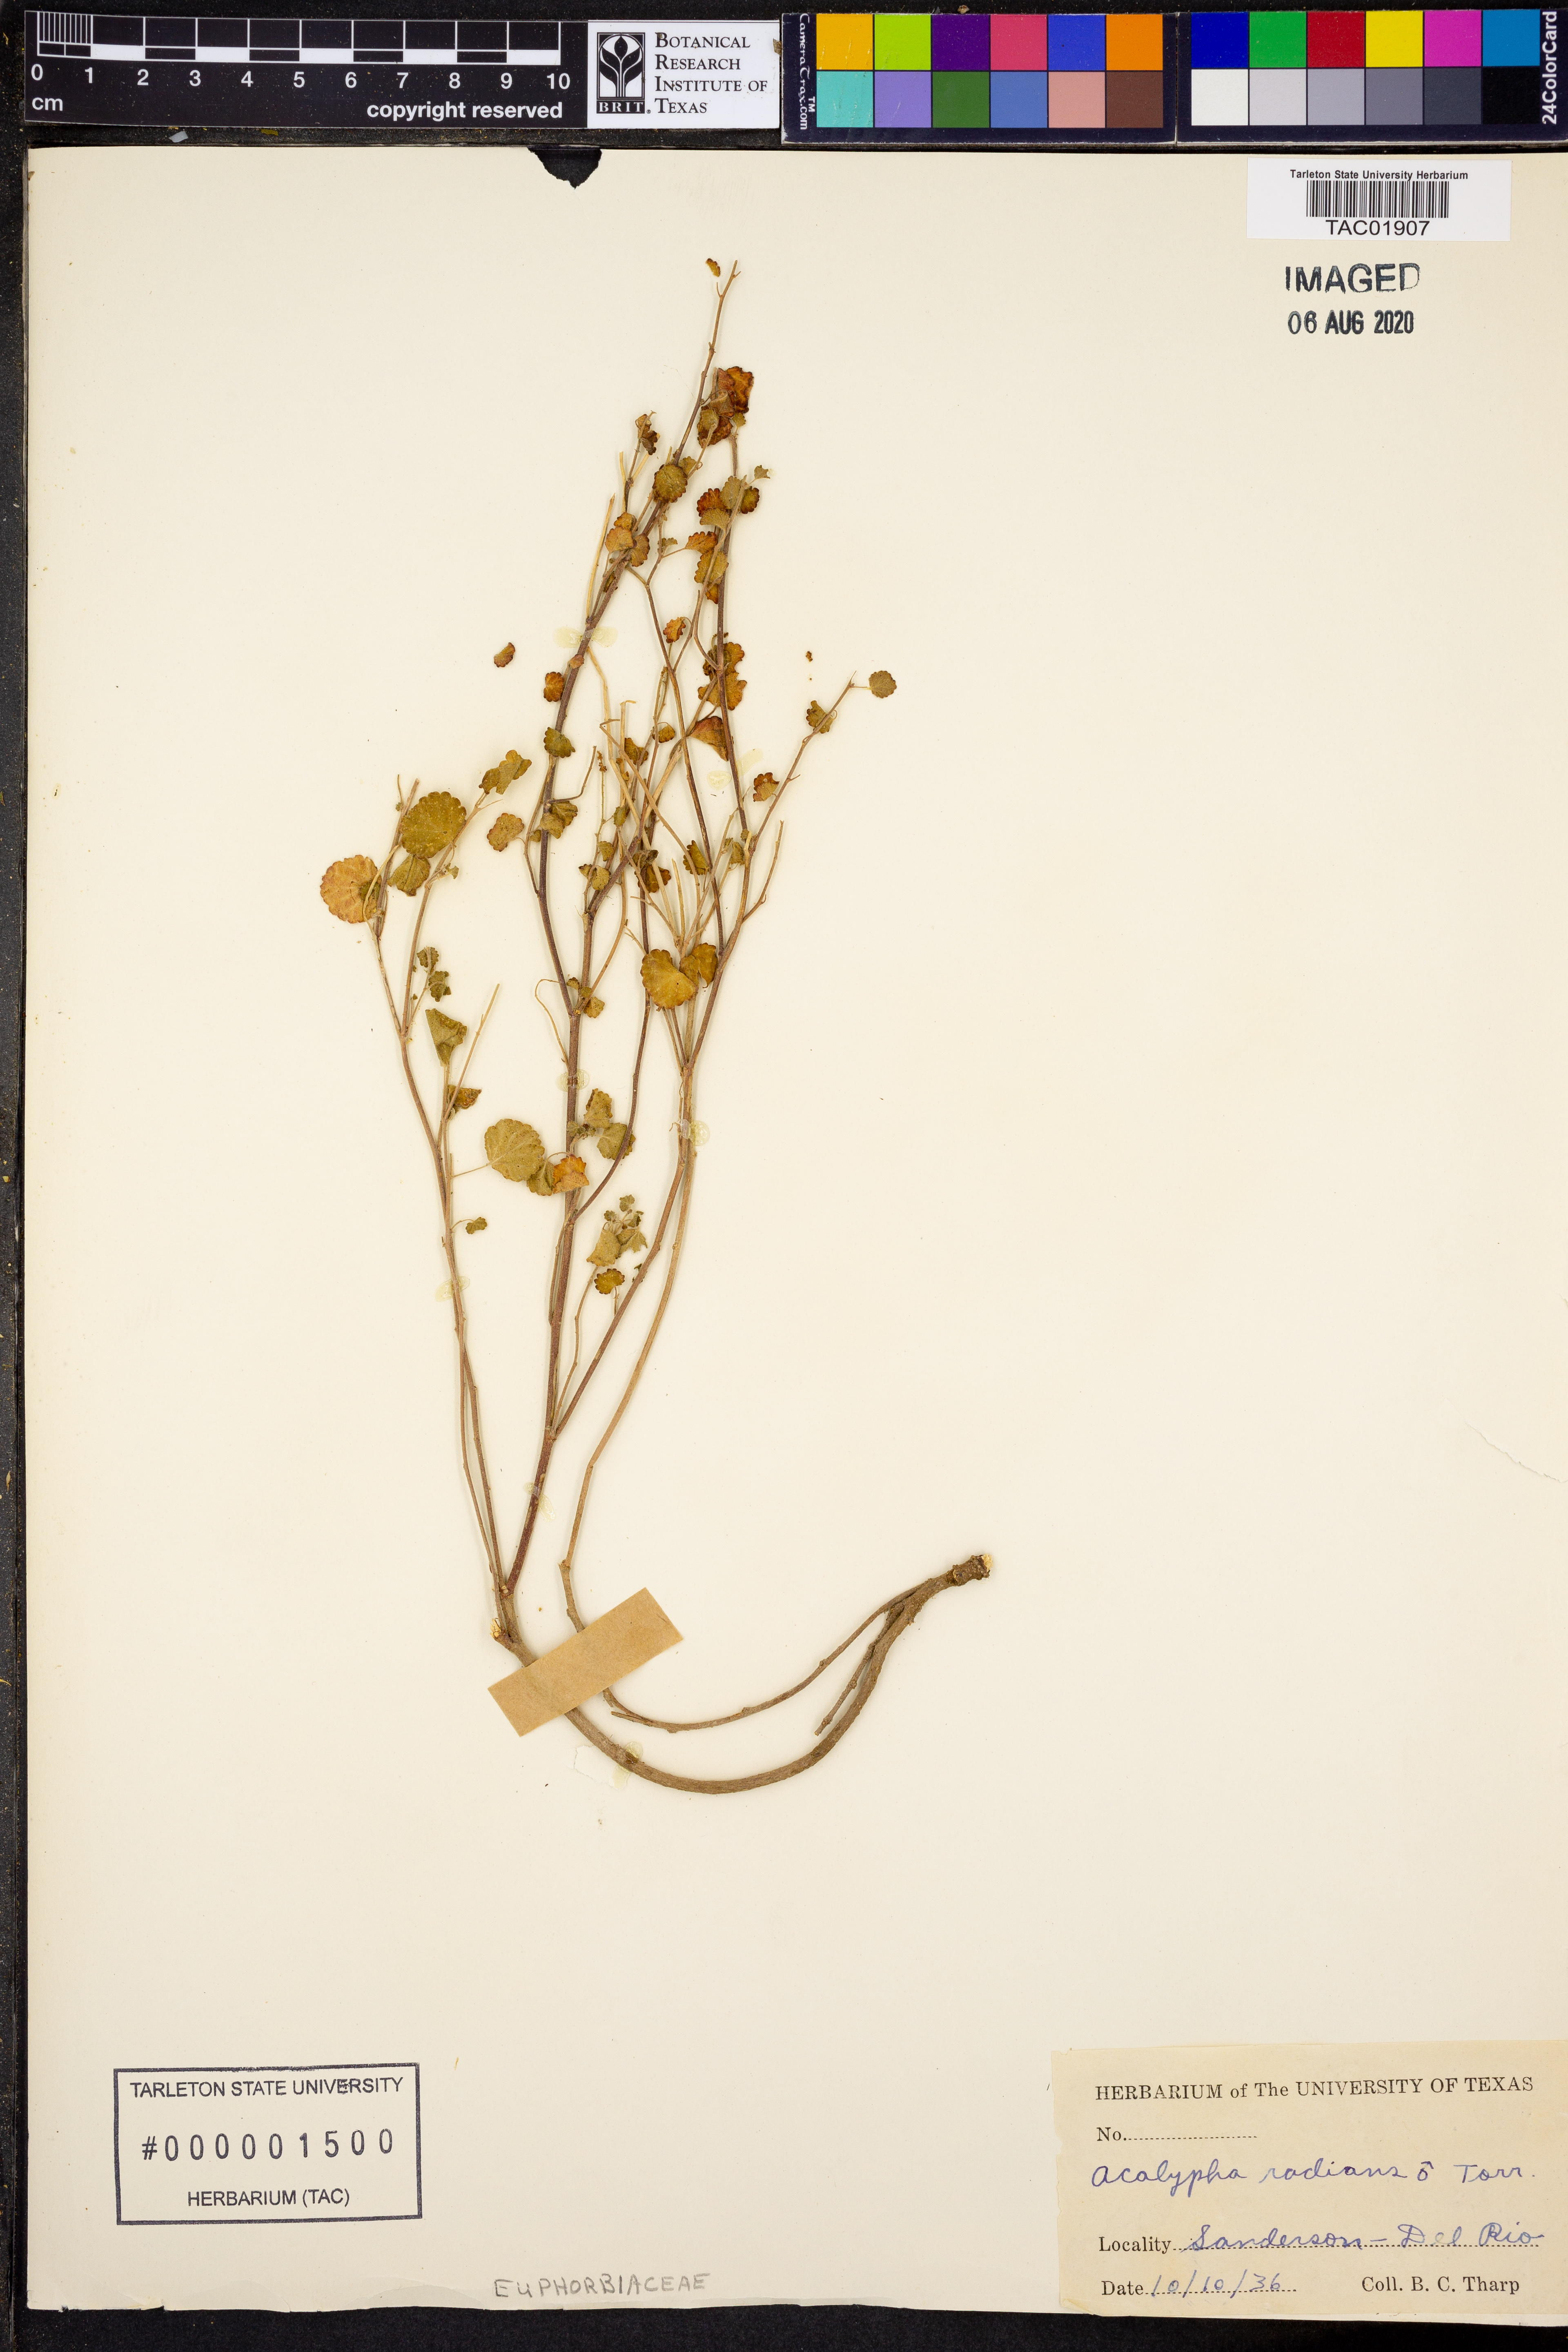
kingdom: Plantae
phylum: Tracheophyta
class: Magnoliopsida
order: Malpighiales
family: Euphorbiaceae
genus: Acalypha
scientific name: Acalypha radians
